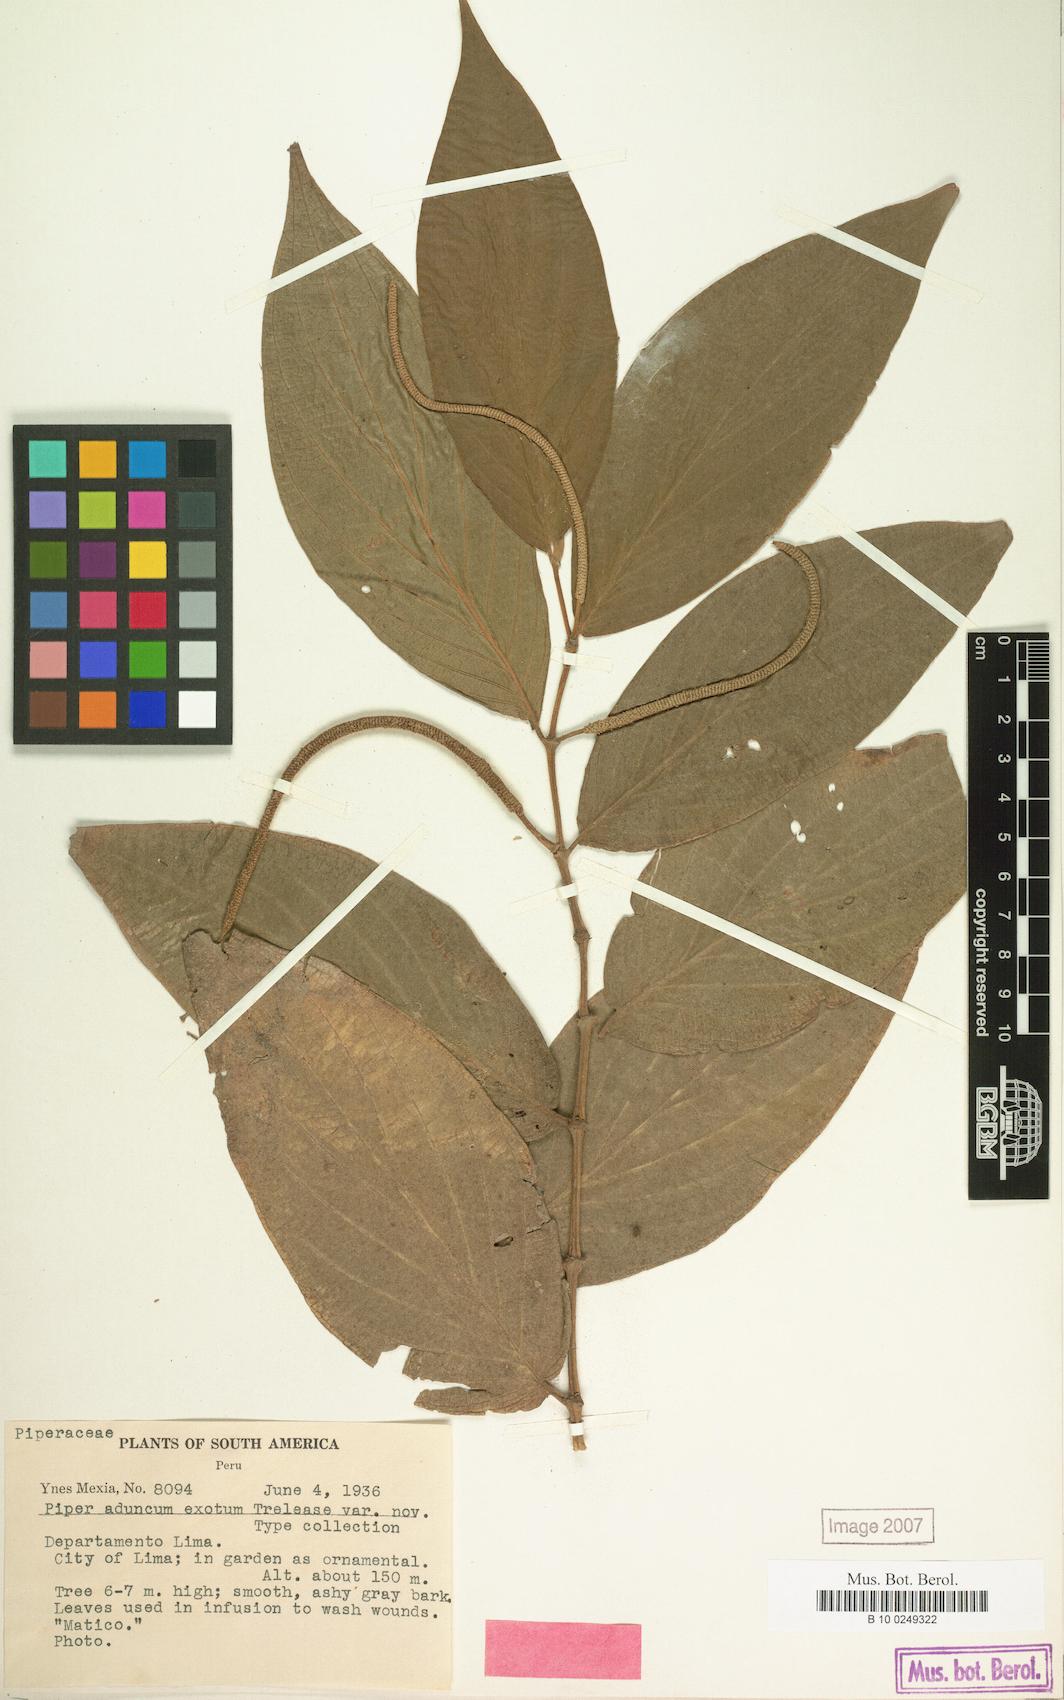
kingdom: Plantae
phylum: Tracheophyta
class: Magnoliopsida
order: Piperales
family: Piperaceae
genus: Piper
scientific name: Piper aduncum
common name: Spiked pepper
